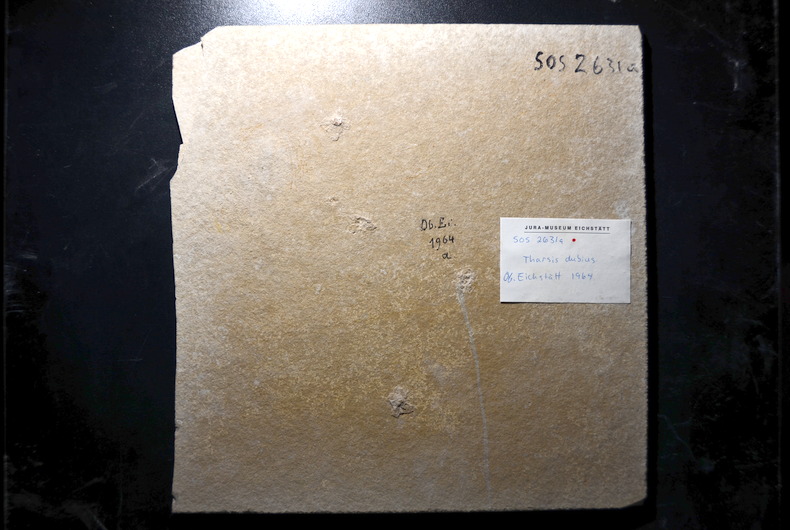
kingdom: Animalia
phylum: Chordata
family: Ascalaboidae
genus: Tharsis
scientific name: Tharsis dubius
